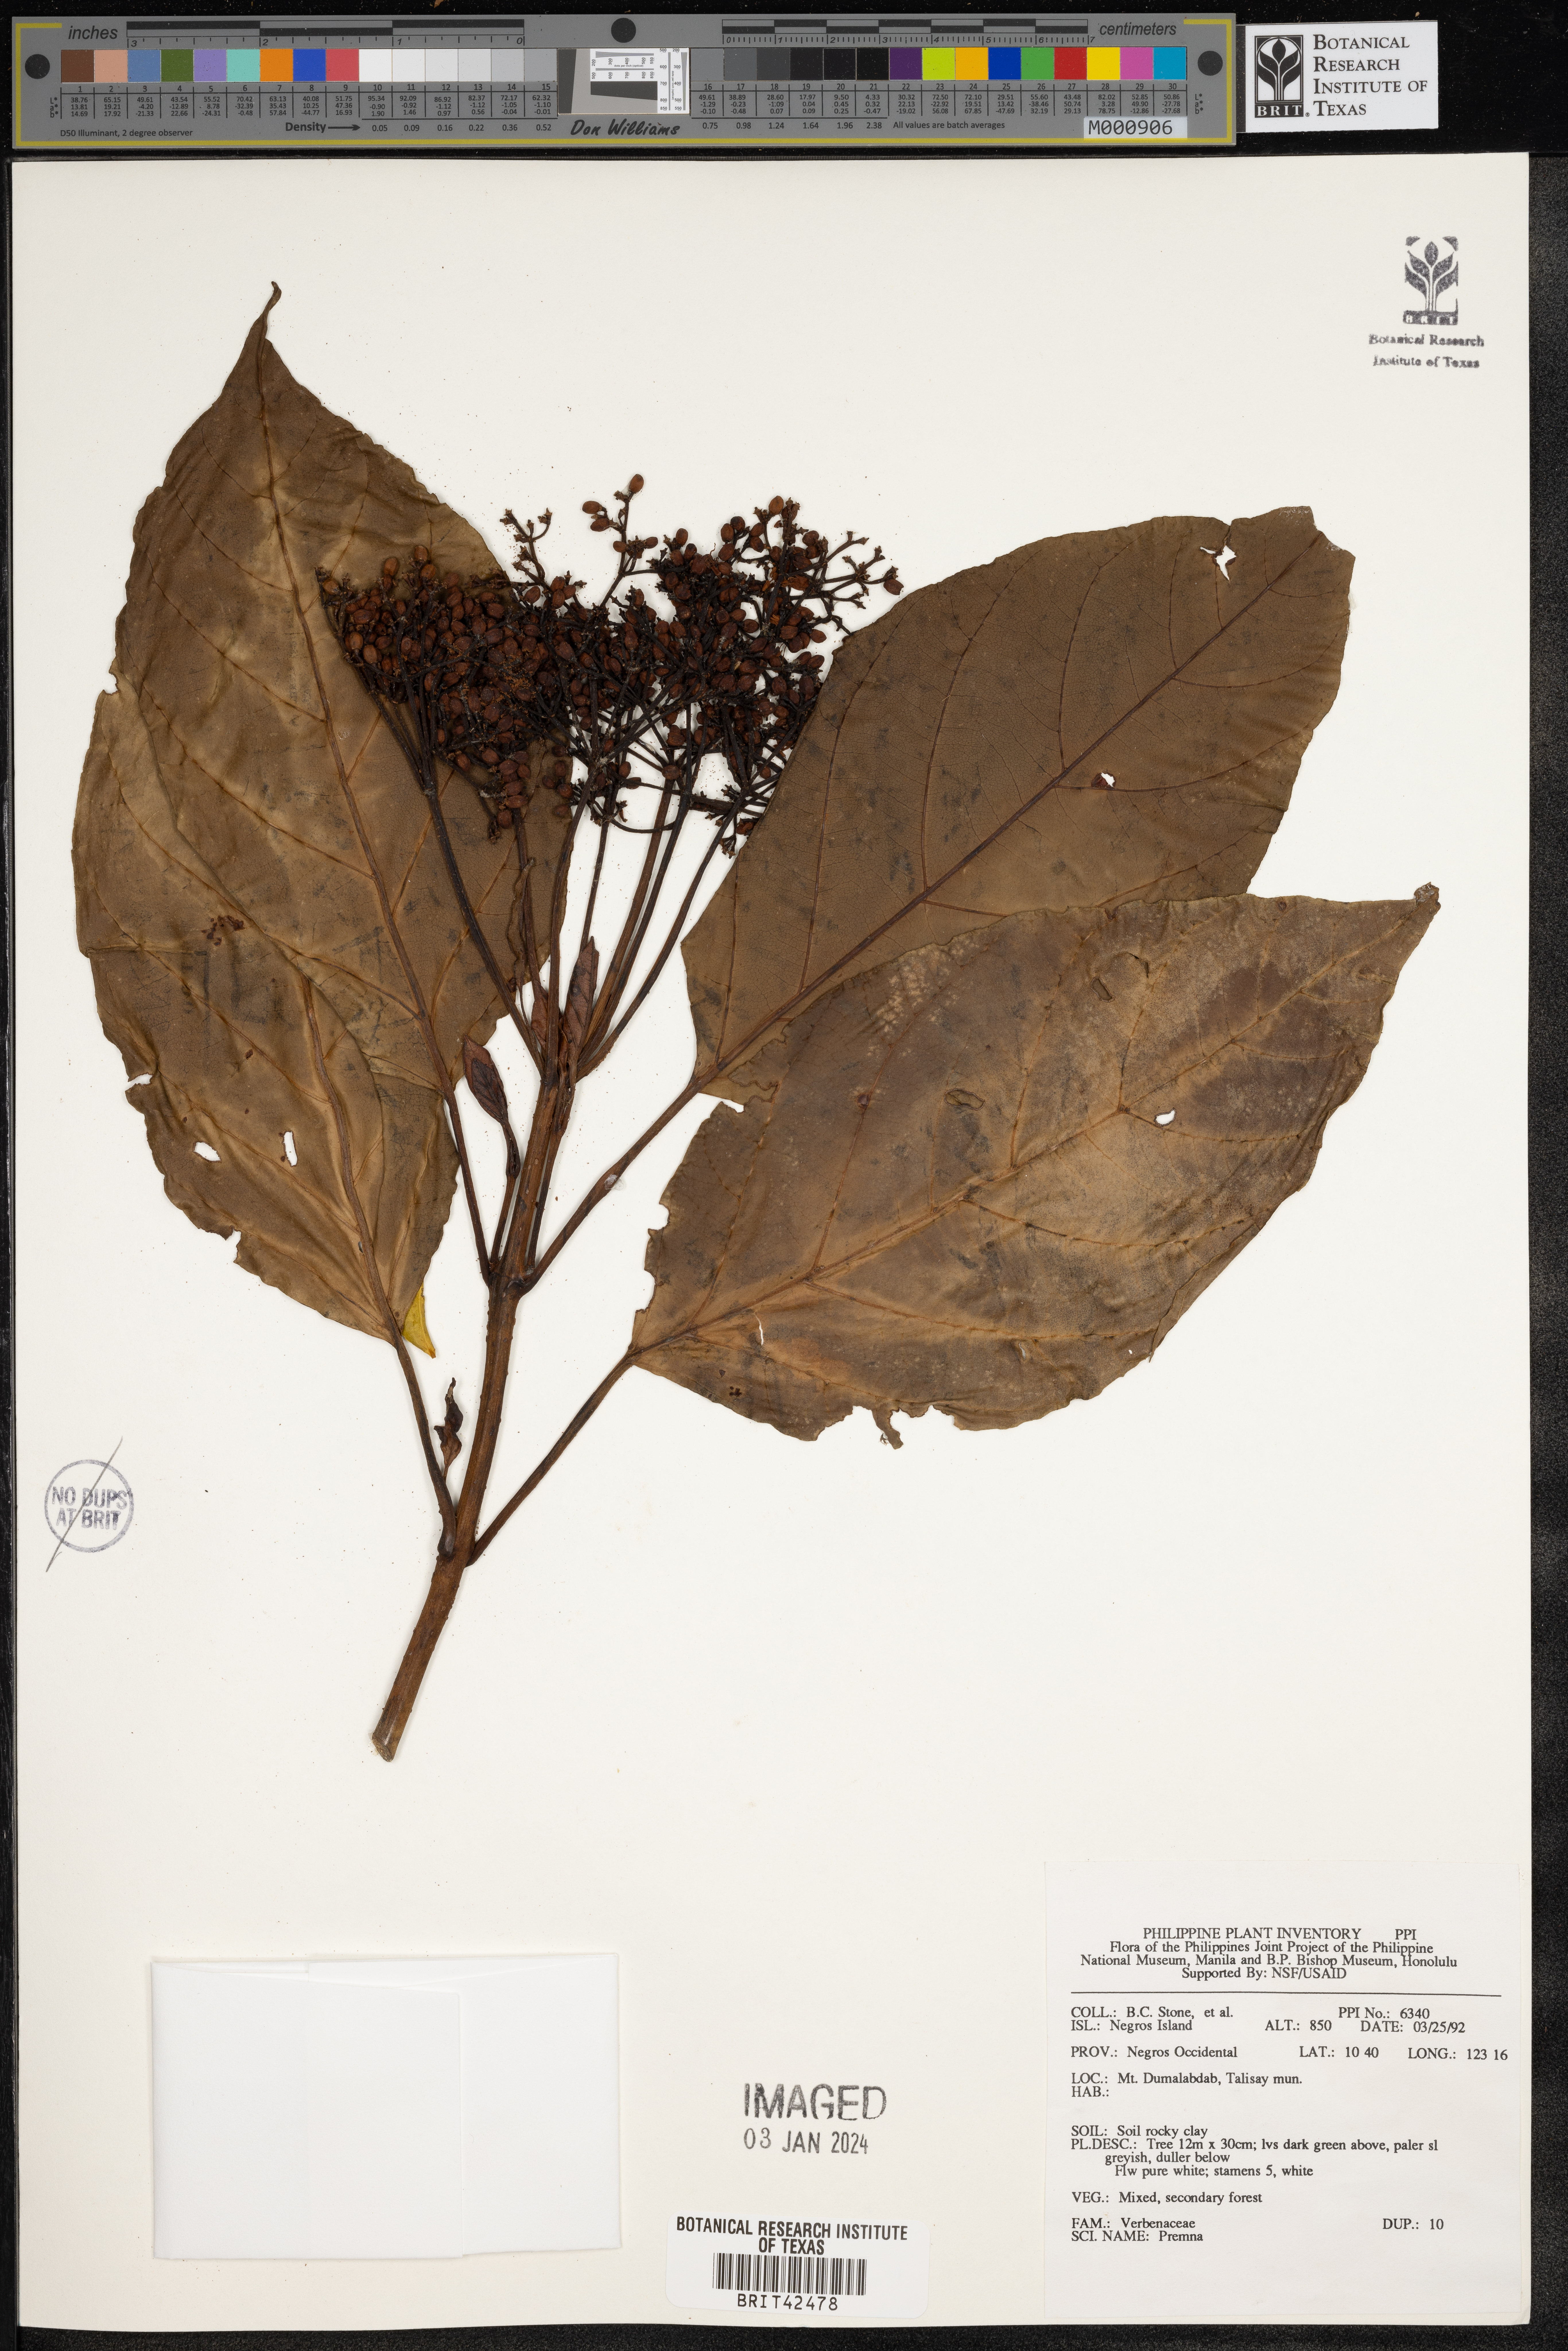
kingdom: Plantae
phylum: Tracheophyta
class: Magnoliopsida
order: Lamiales
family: Lamiaceae
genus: Premna
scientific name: Premna
